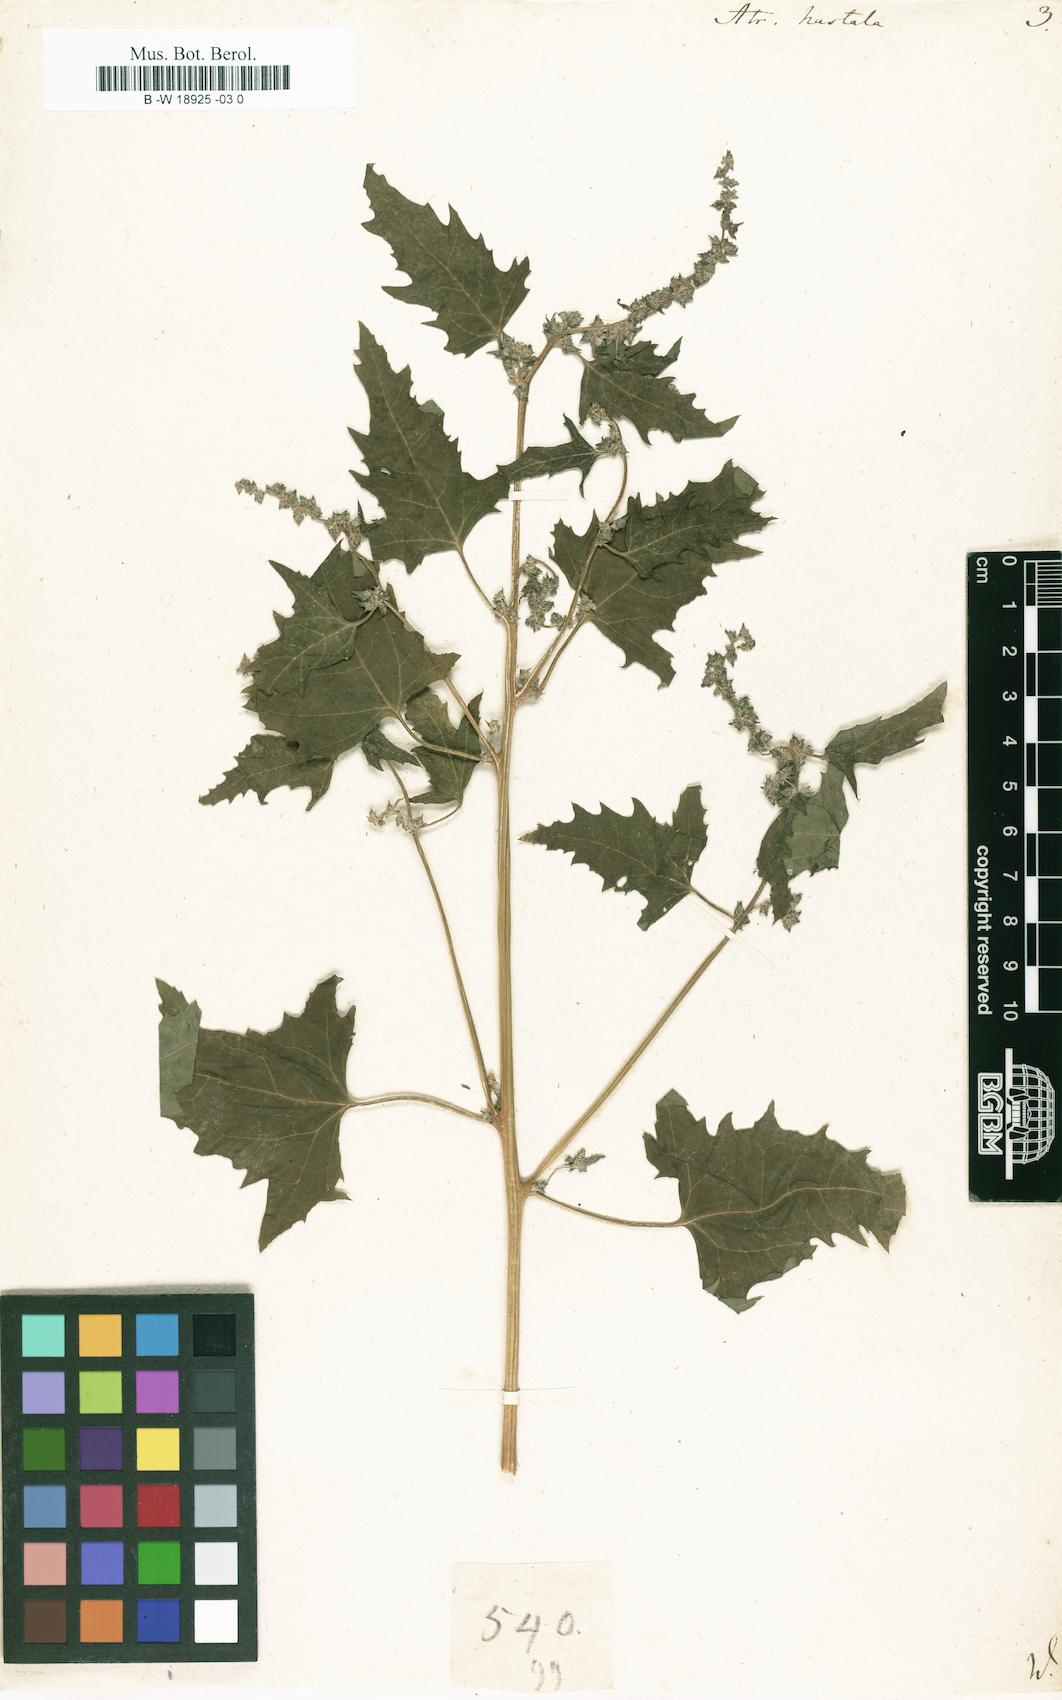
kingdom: Plantae
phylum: Tracheophyta
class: Magnoliopsida
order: Caryophyllales
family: Amaranthaceae
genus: Atriplex
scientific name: Atriplex
